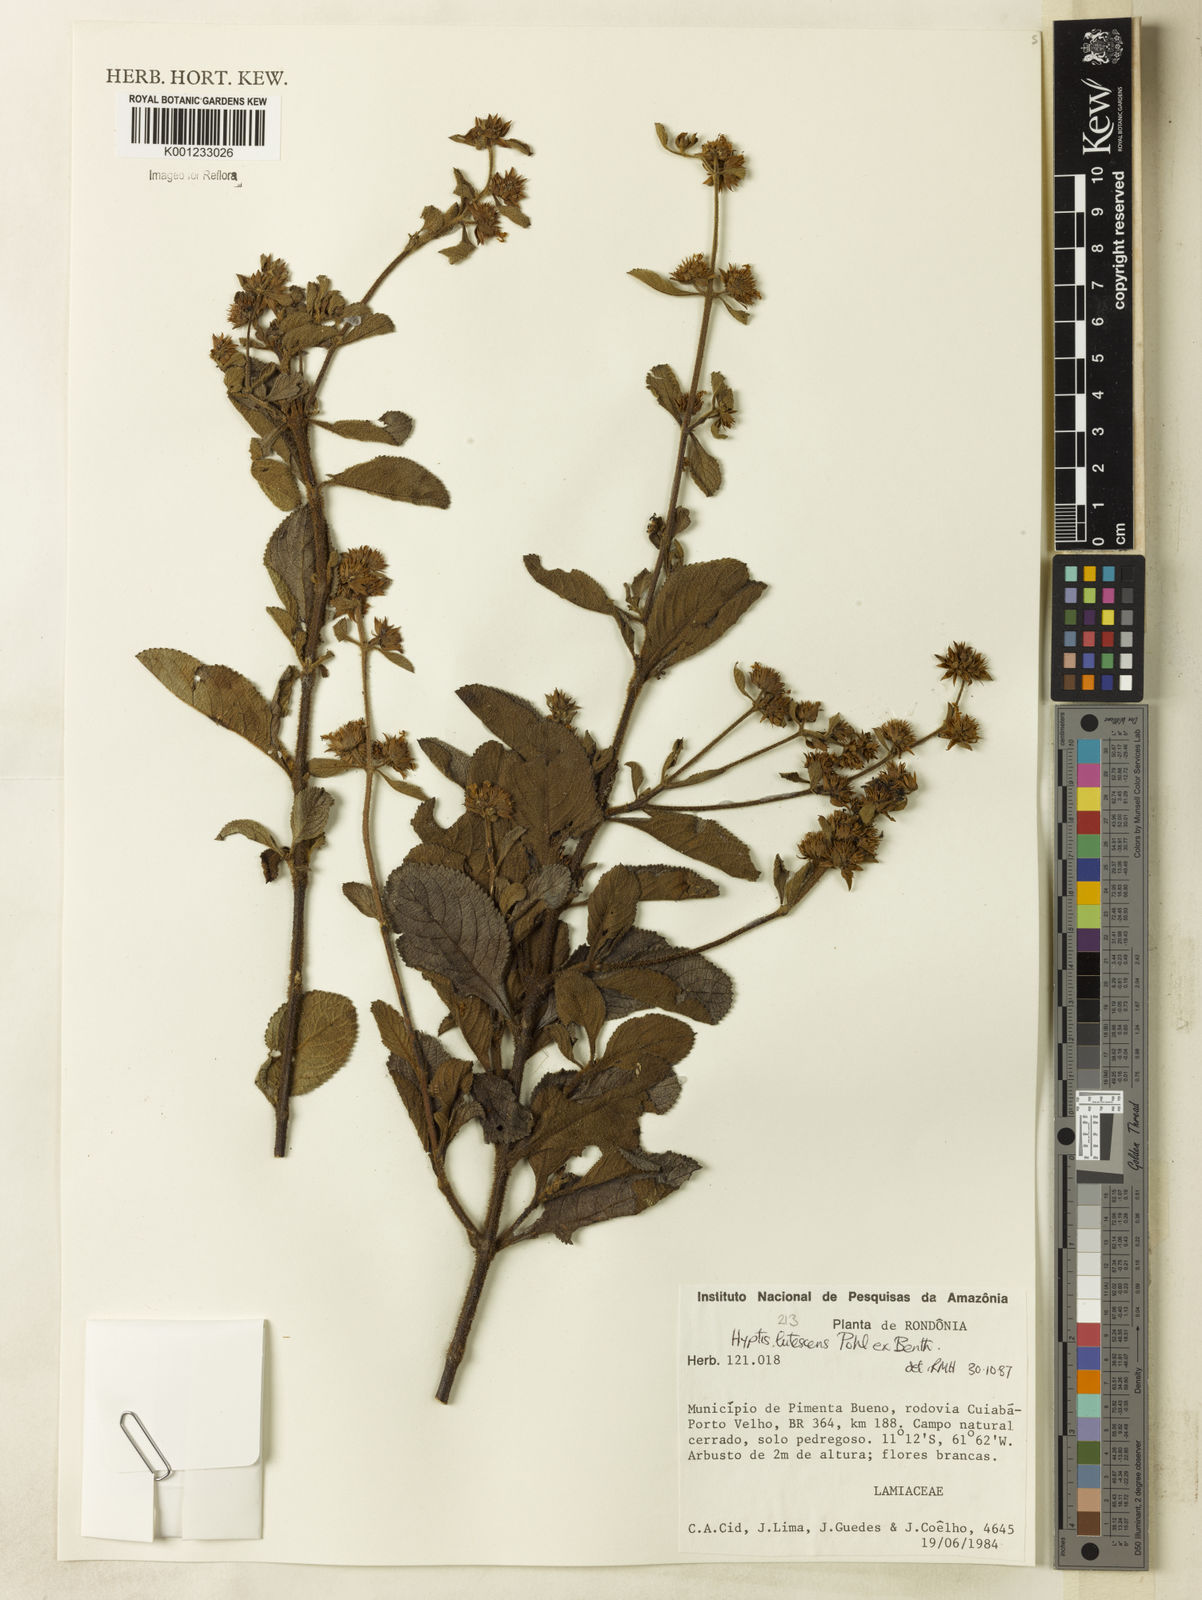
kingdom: Plantae
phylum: Tracheophyta
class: Magnoliopsida
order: Lamiales
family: Lamiaceae
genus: Hyptis
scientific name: Hyptis lutescens
